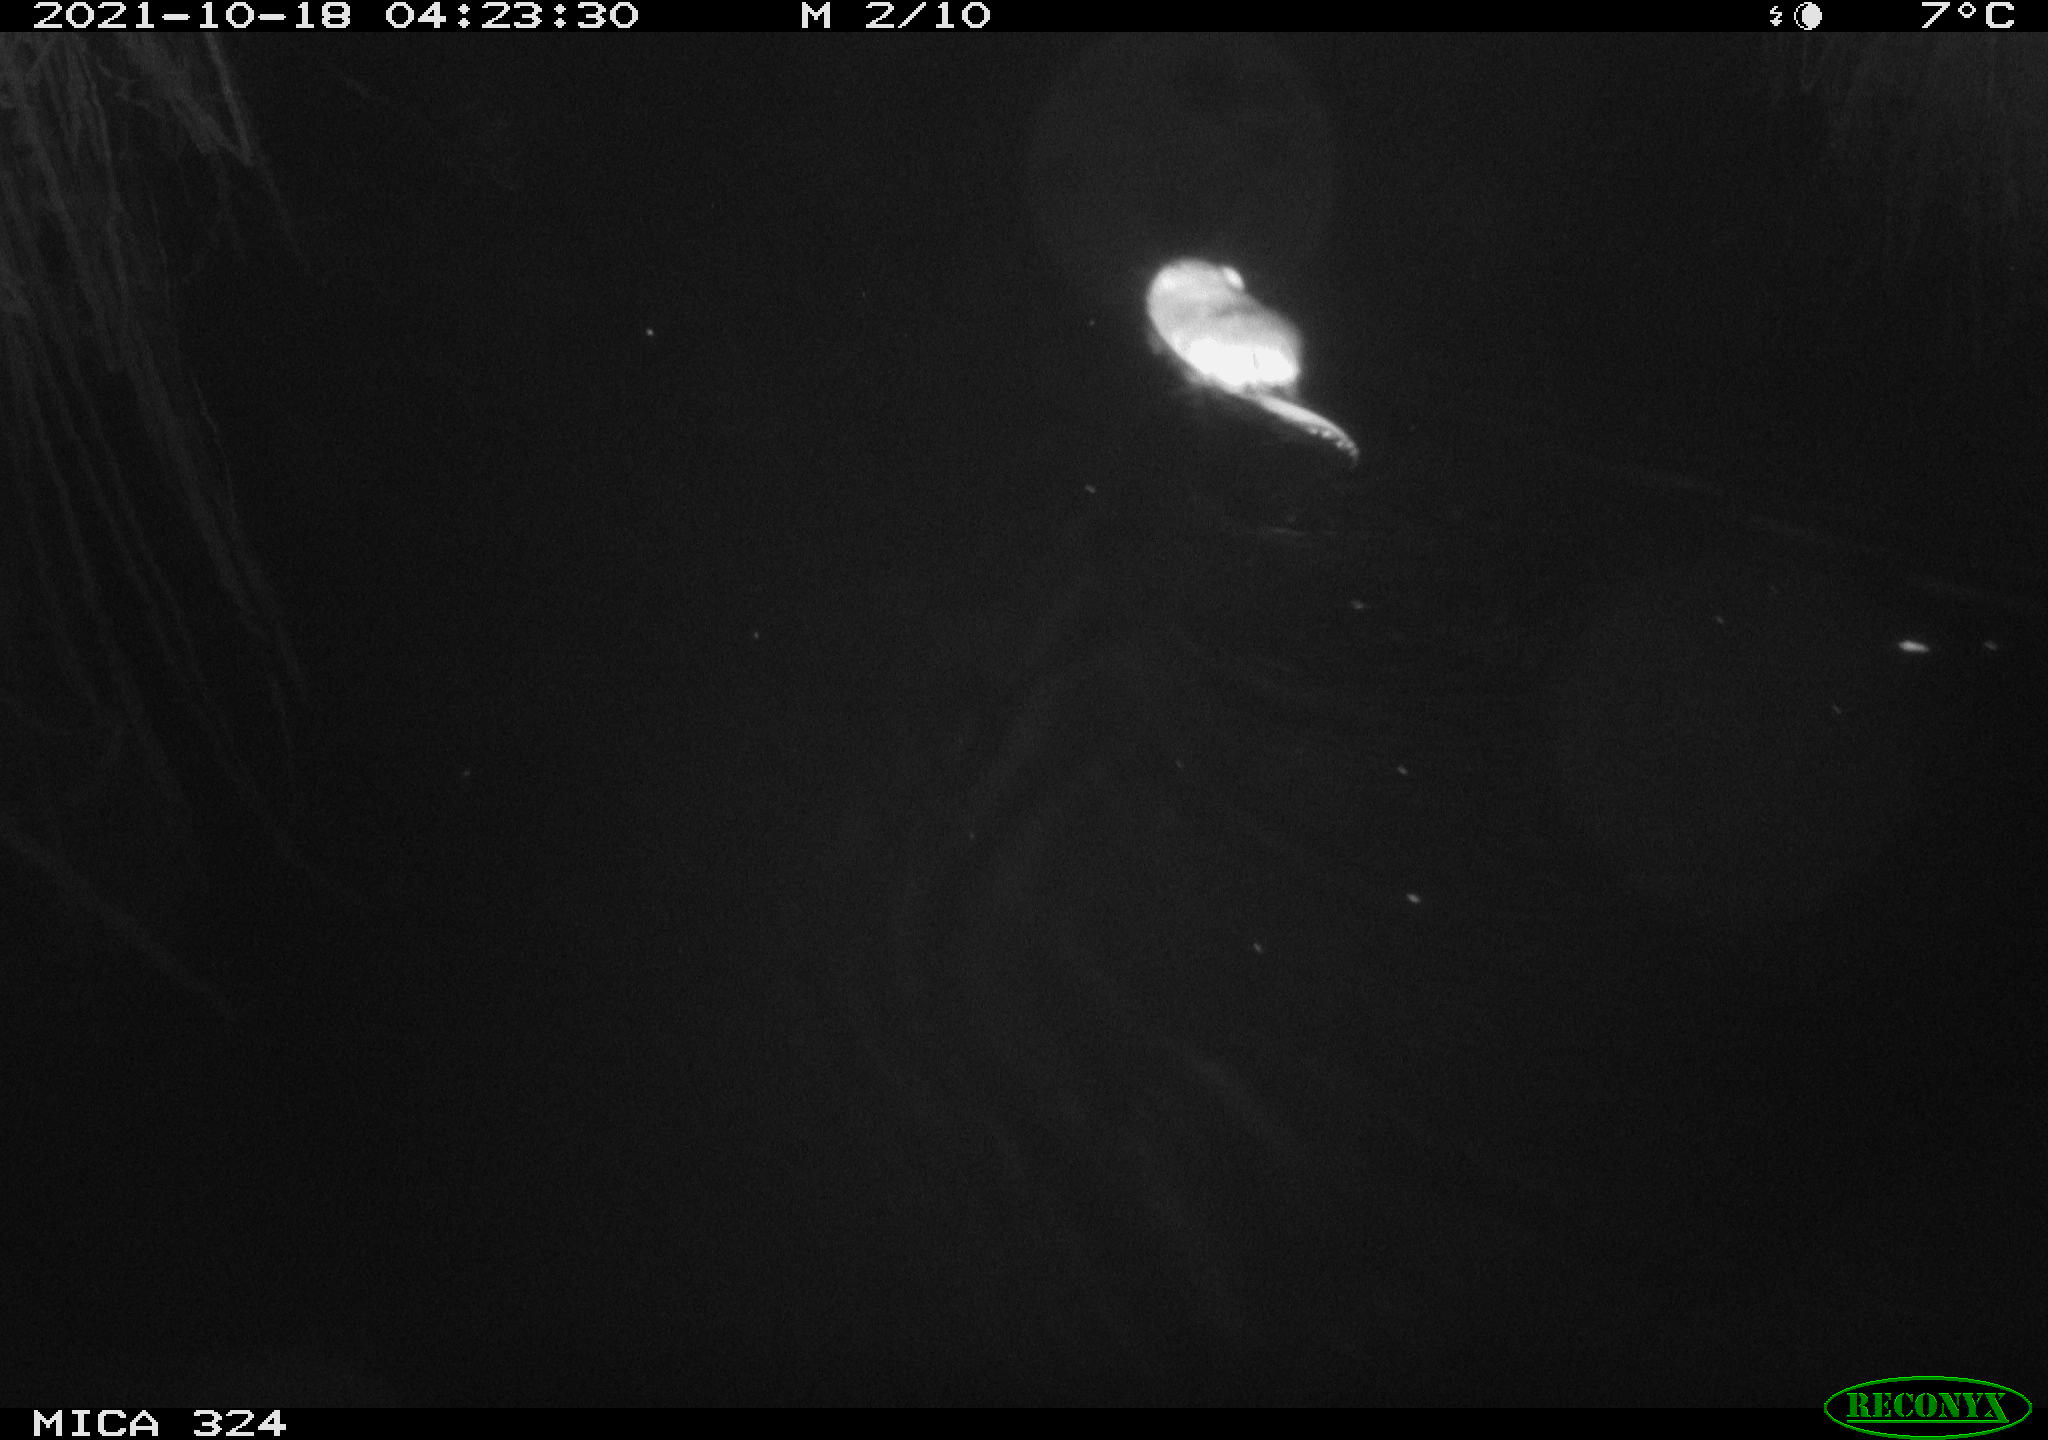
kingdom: Animalia
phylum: Chordata
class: Mammalia
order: Rodentia
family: Cricetidae
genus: Ondatra
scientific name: Ondatra zibethicus
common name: Muskrat
